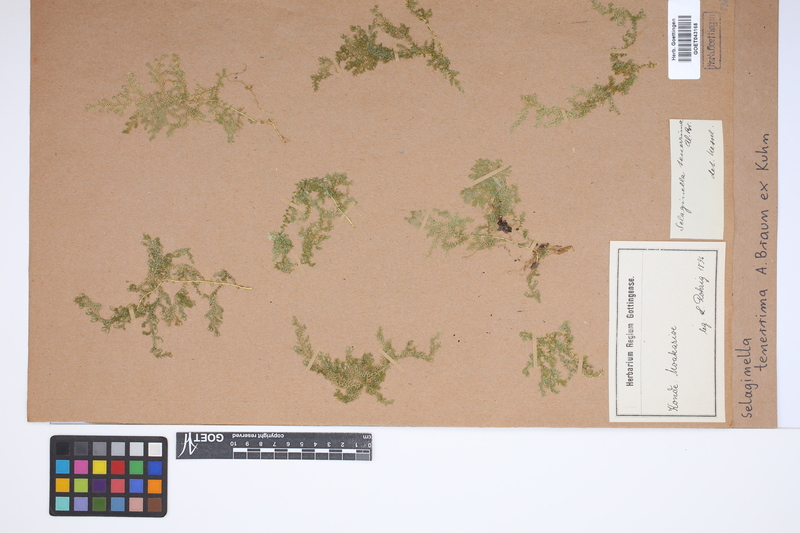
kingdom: Plantae
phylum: Tracheophyta
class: Lycopodiopsida
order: Selaginellales
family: Selaginellaceae
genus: Selaginella
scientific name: Selaginella tenerrima
